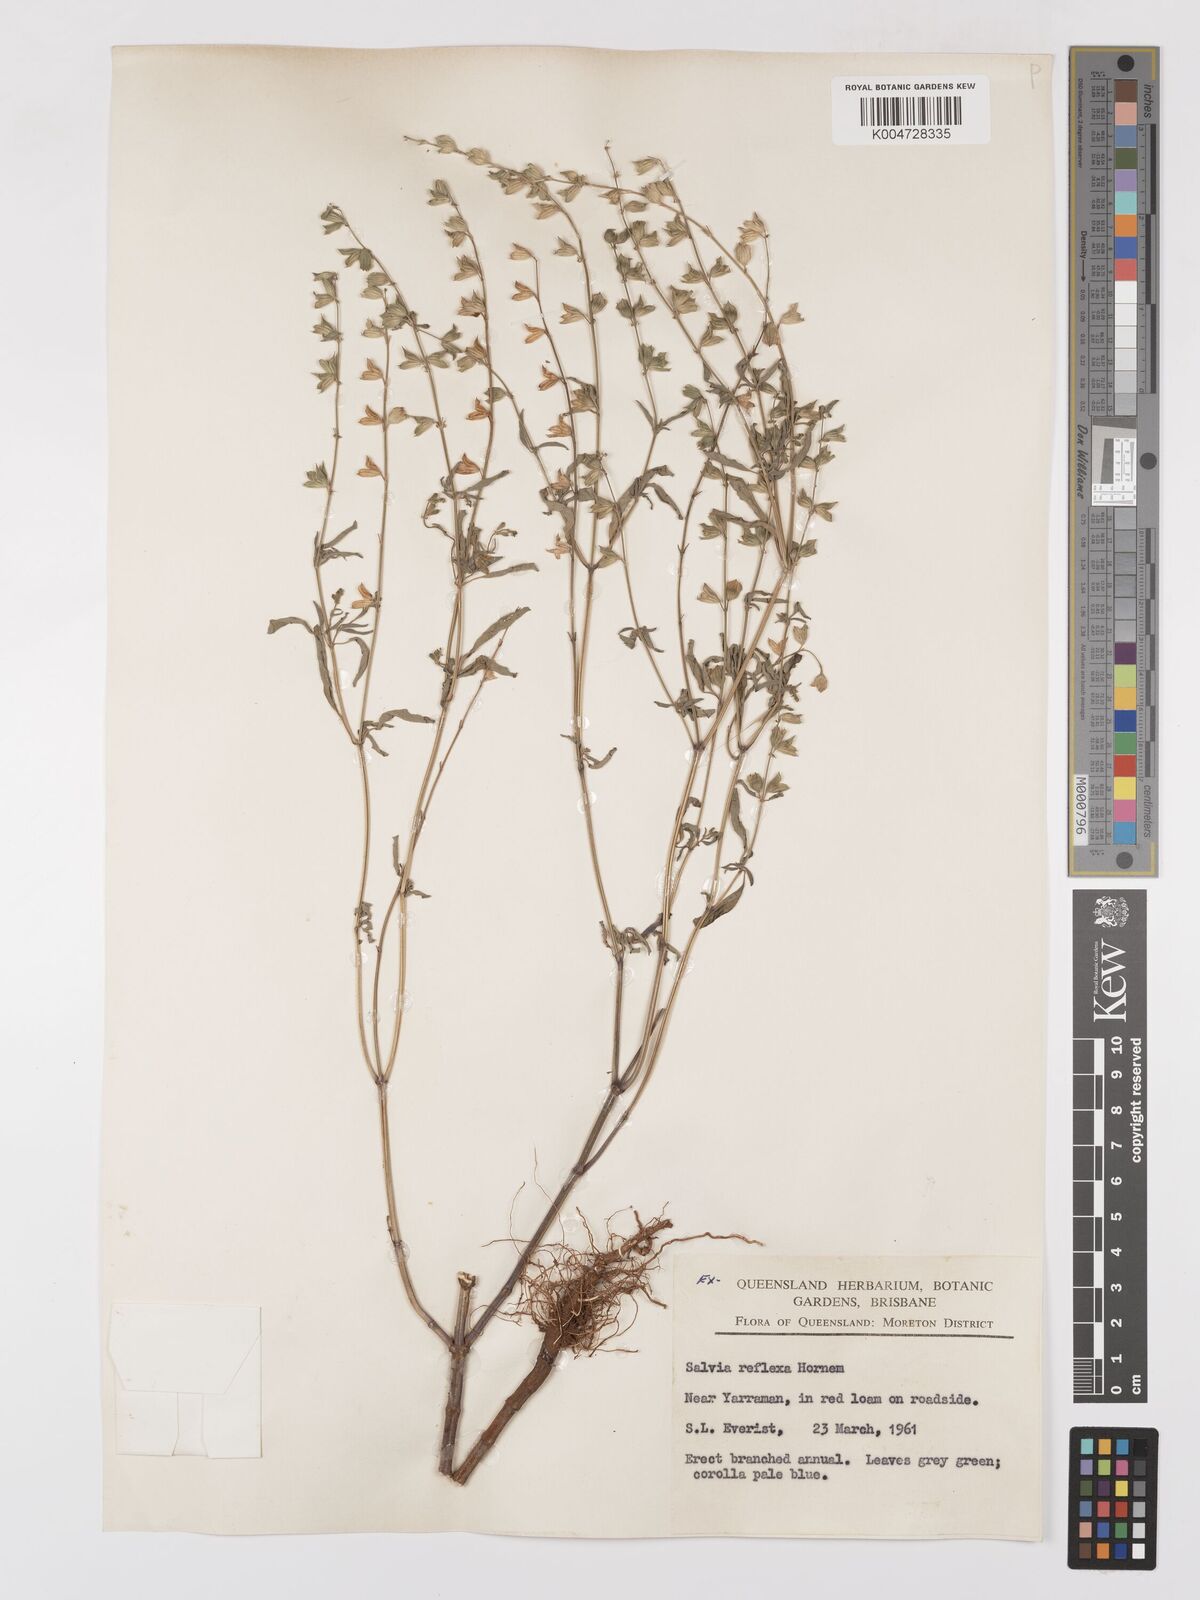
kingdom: Plantae
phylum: Tracheophyta
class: Magnoliopsida
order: Lamiales
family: Lamiaceae
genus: Salvia
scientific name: Salvia reflexa
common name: Mintweed
